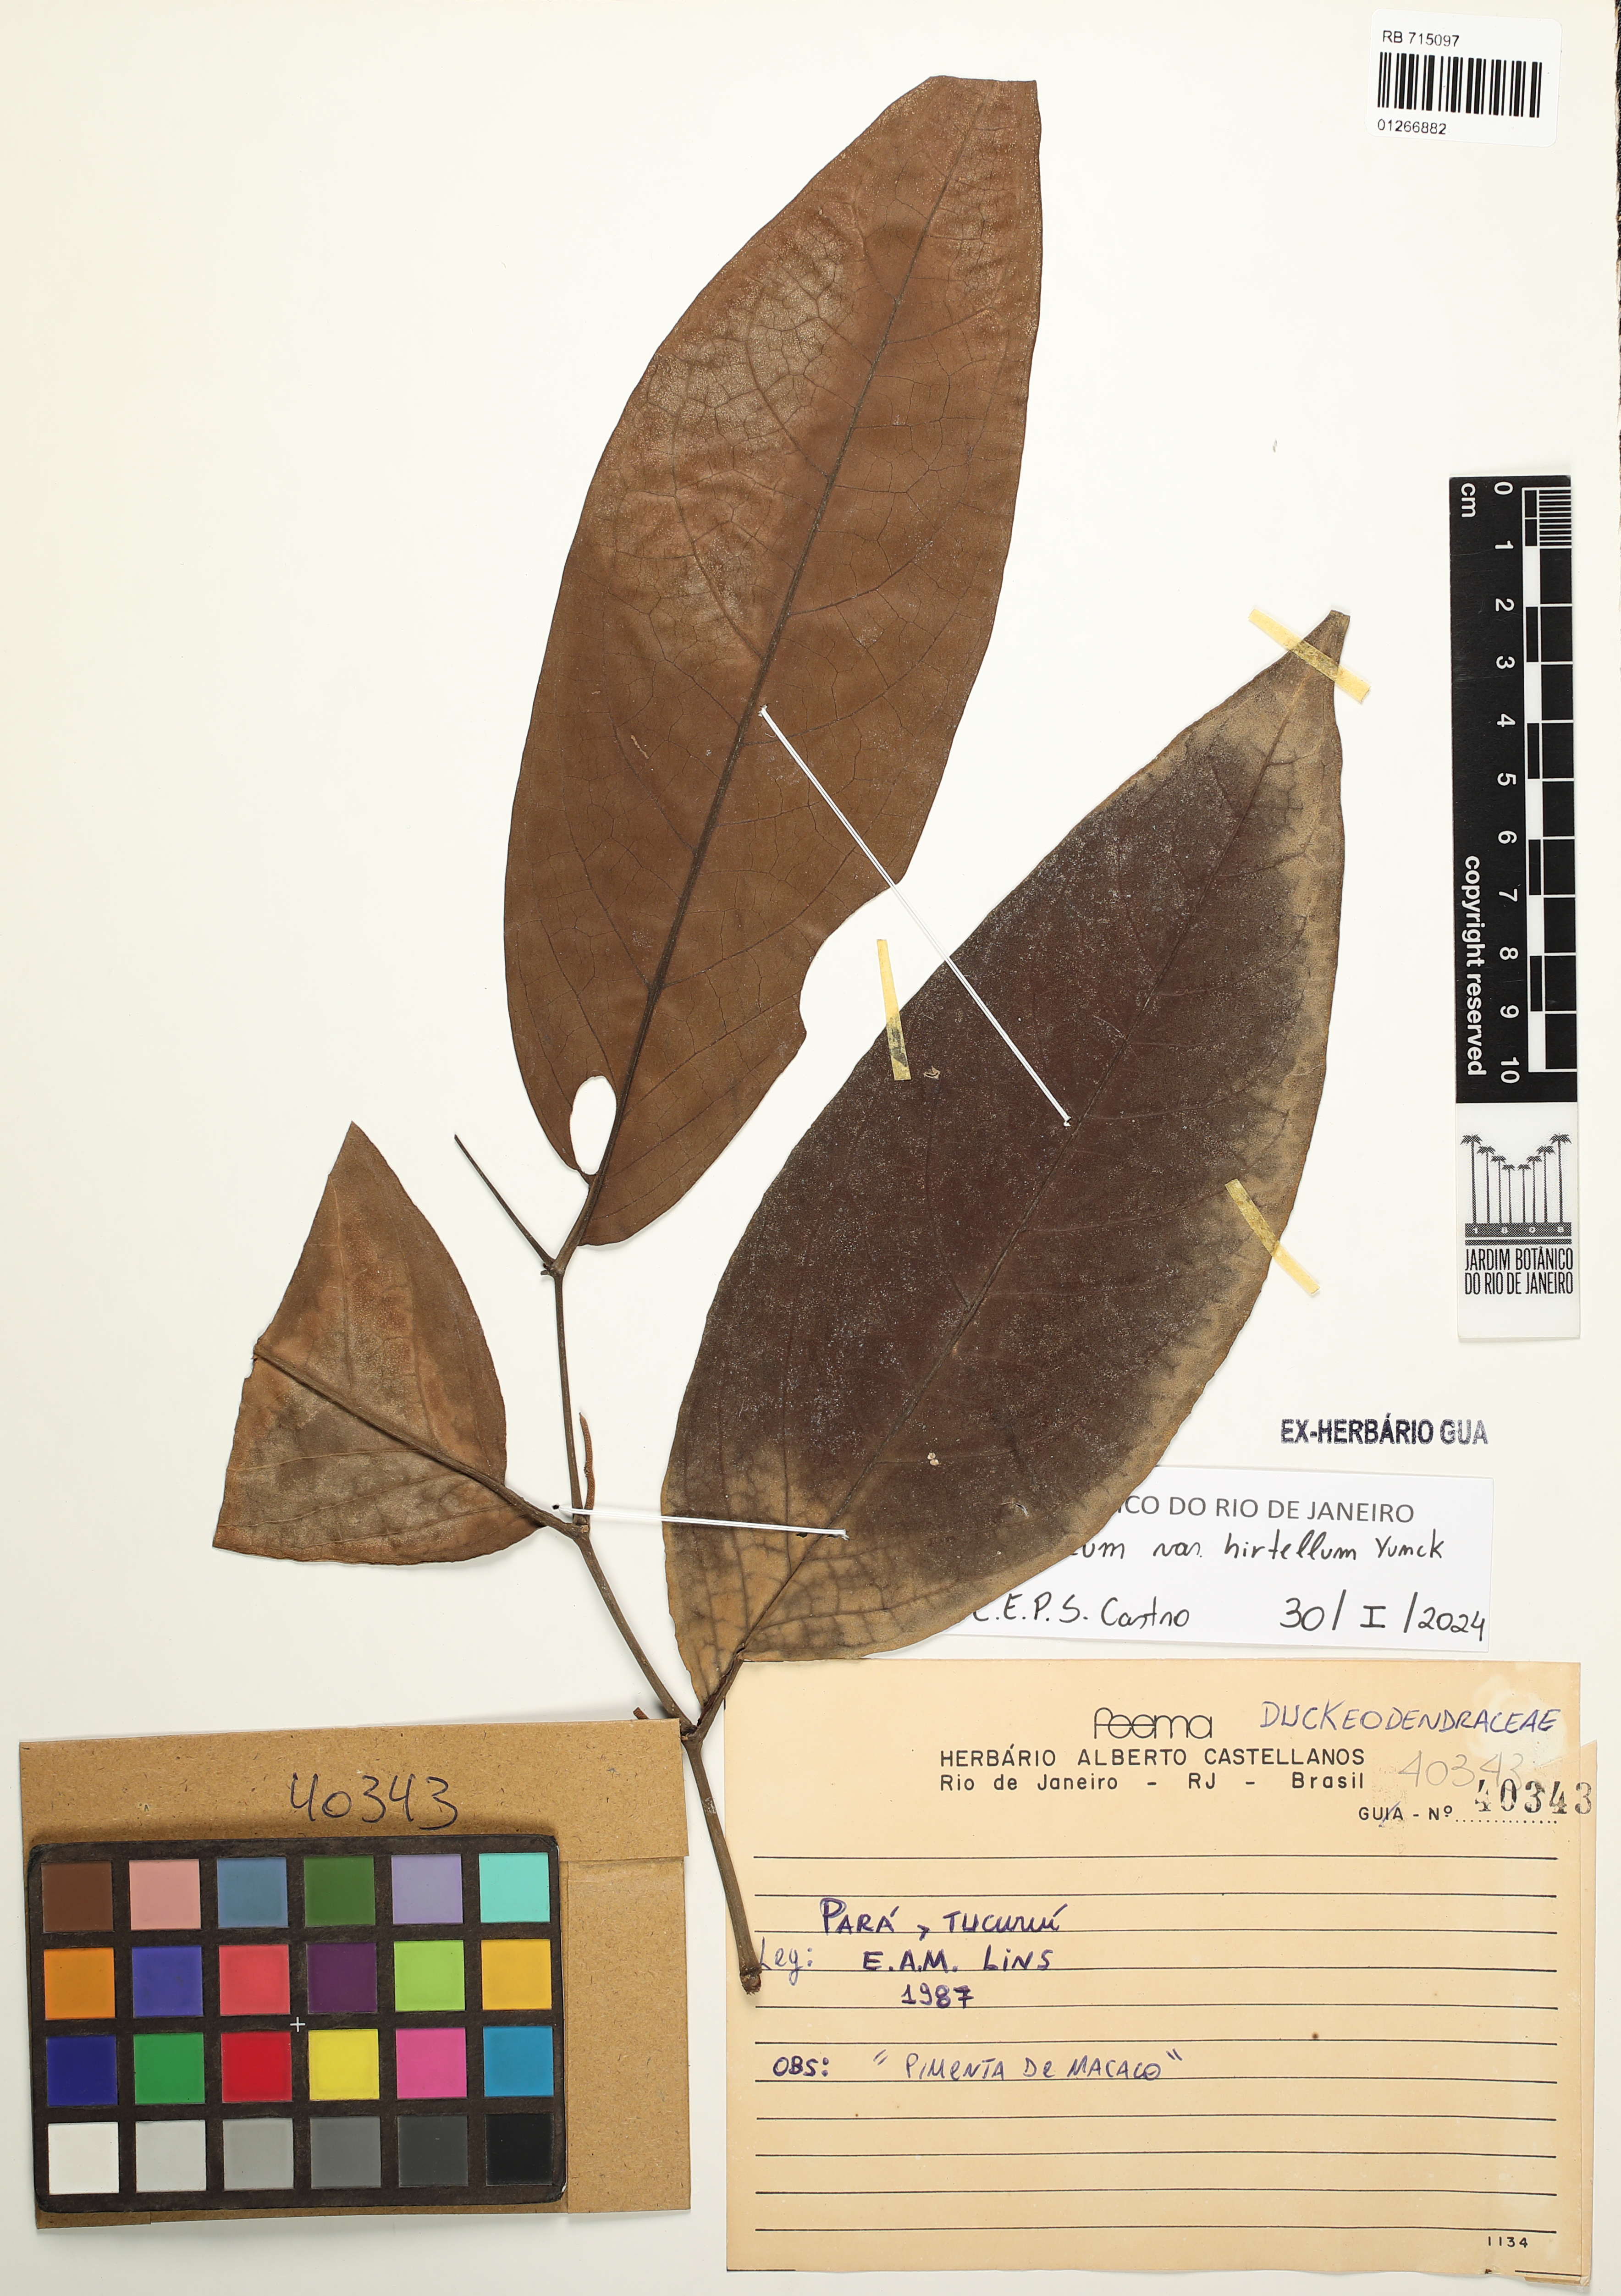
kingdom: Plantae
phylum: Tracheophyta
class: Magnoliopsida
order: Piperales
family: Piperaceae
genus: Piper
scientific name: Piper arboreum
